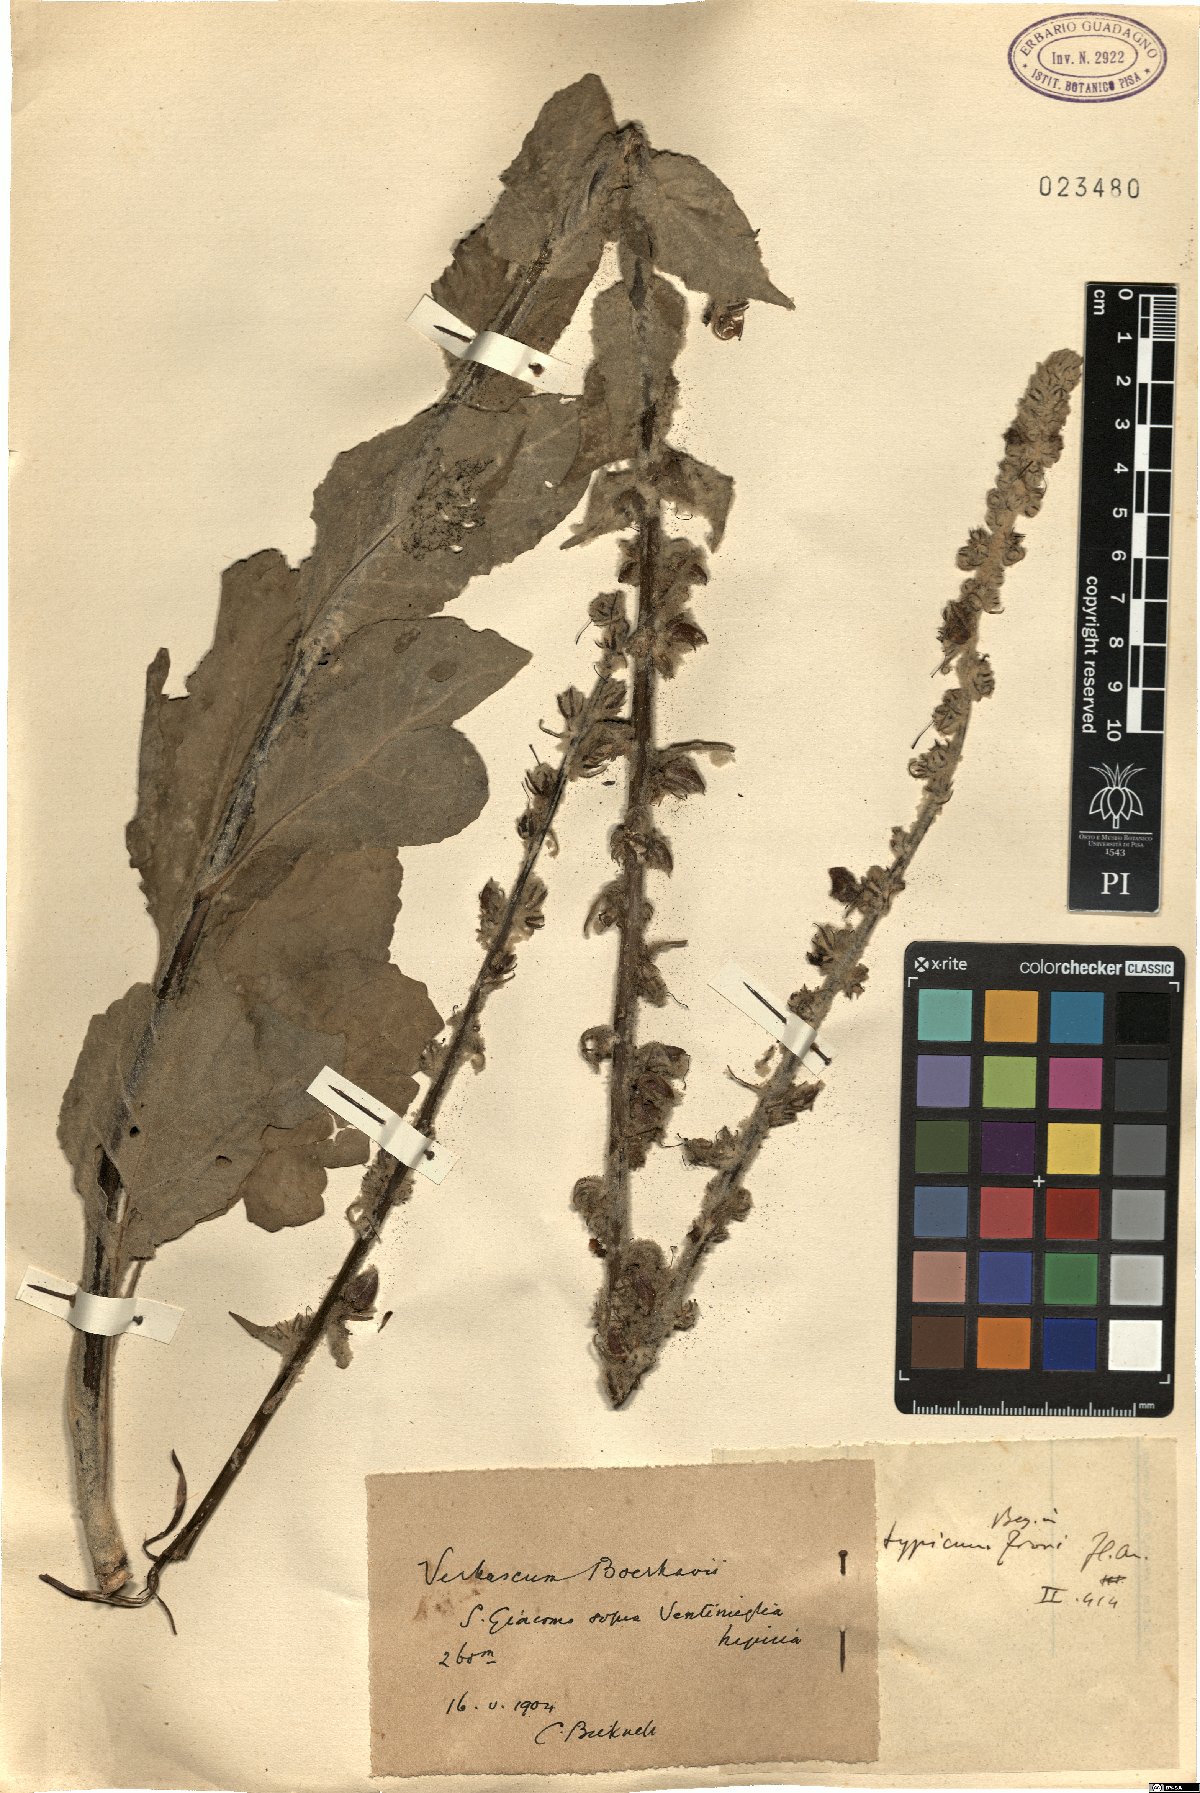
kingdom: Plantae
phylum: Tracheophyta
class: Magnoliopsida
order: Lamiales
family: Scrophulariaceae
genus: Verbascum
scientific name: Verbascum boerhavii
